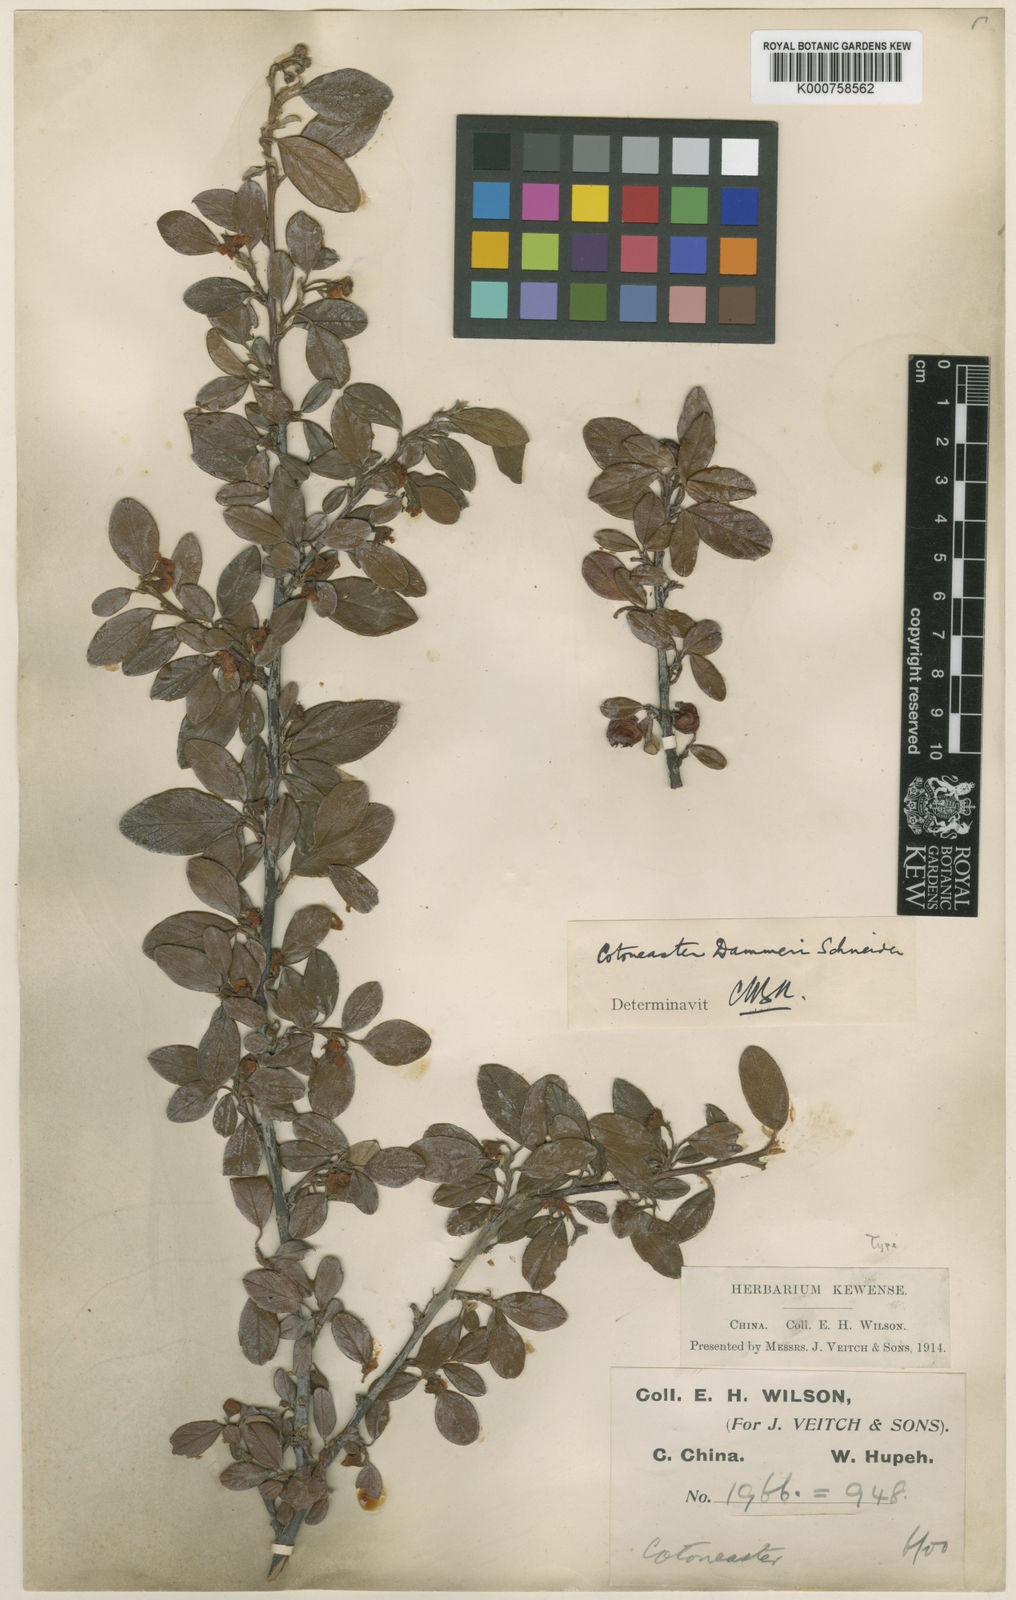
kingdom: Plantae
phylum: Tracheophyta
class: Magnoliopsida
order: Rosales
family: Rosaceae
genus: Cotoneaster
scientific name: Cotoneaster dammeri
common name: Bearberry cotoneaster
